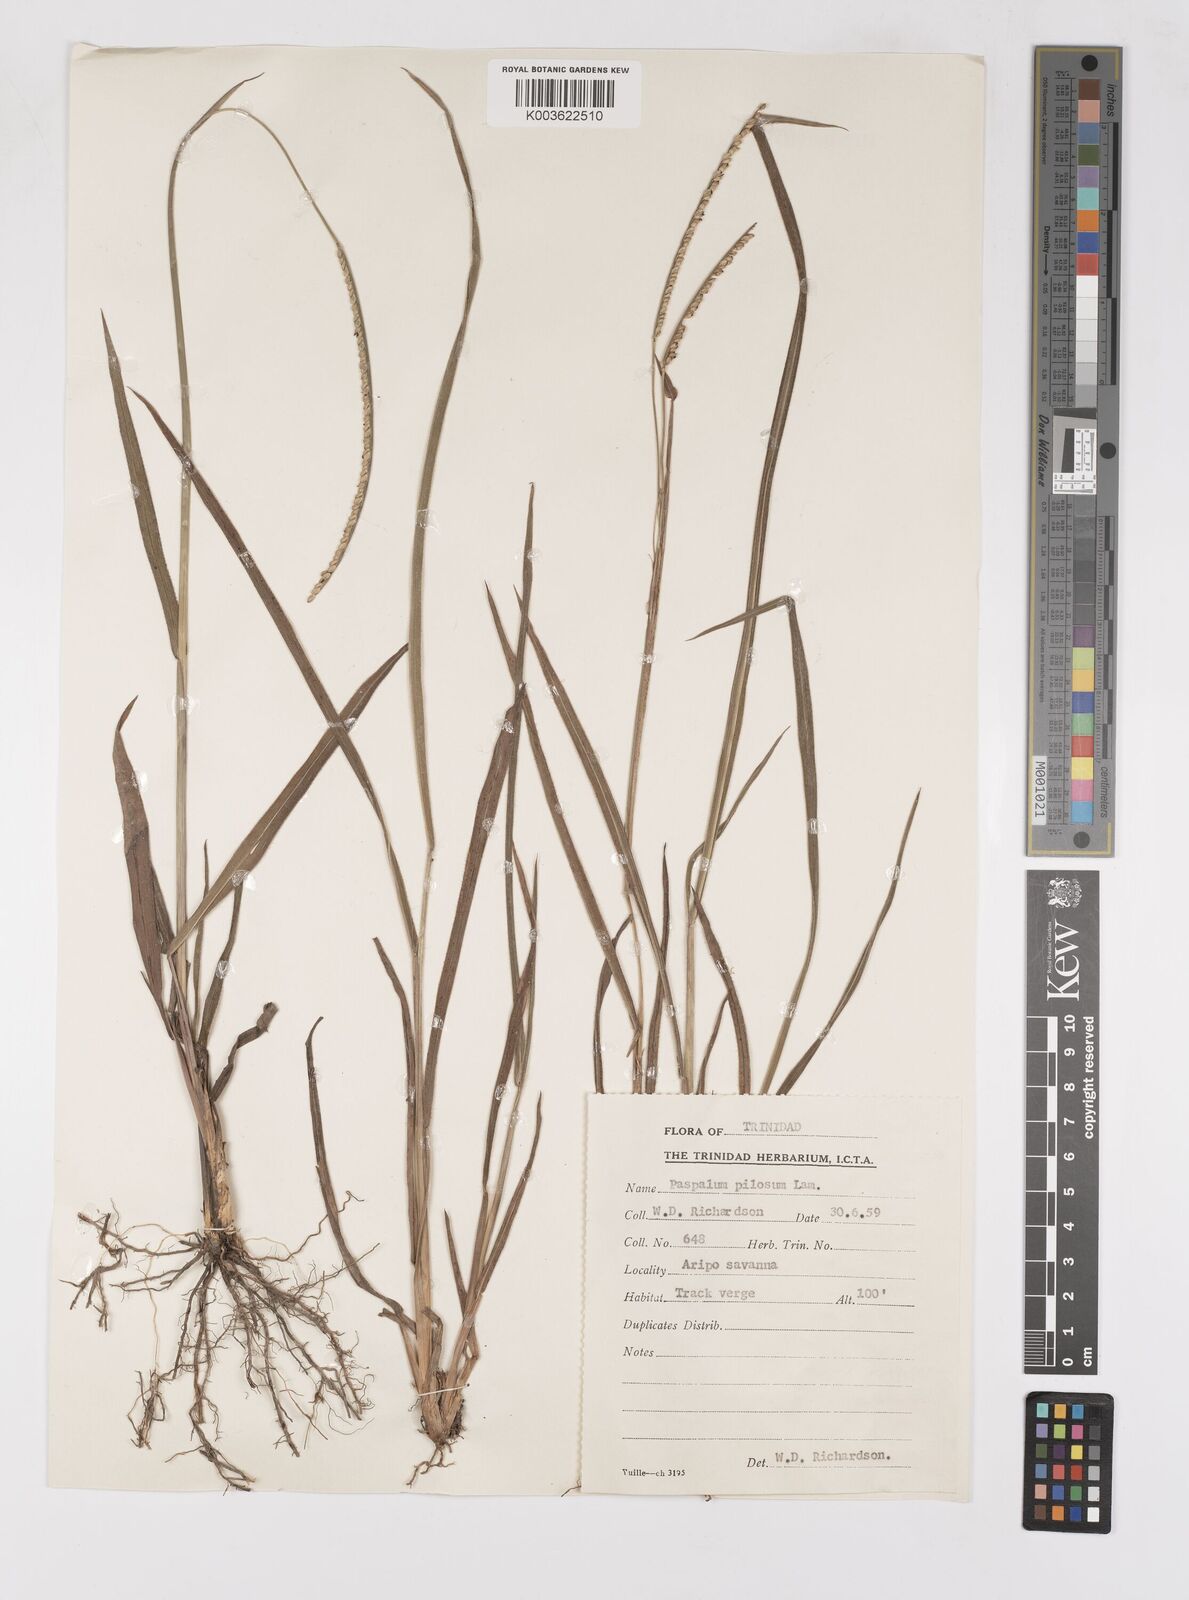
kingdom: Plantae
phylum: Tracheophyta
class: Liliopsida
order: Poales
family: Poaceae
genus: Paspalum
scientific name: Paspalum pilosum
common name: Crowngrass
